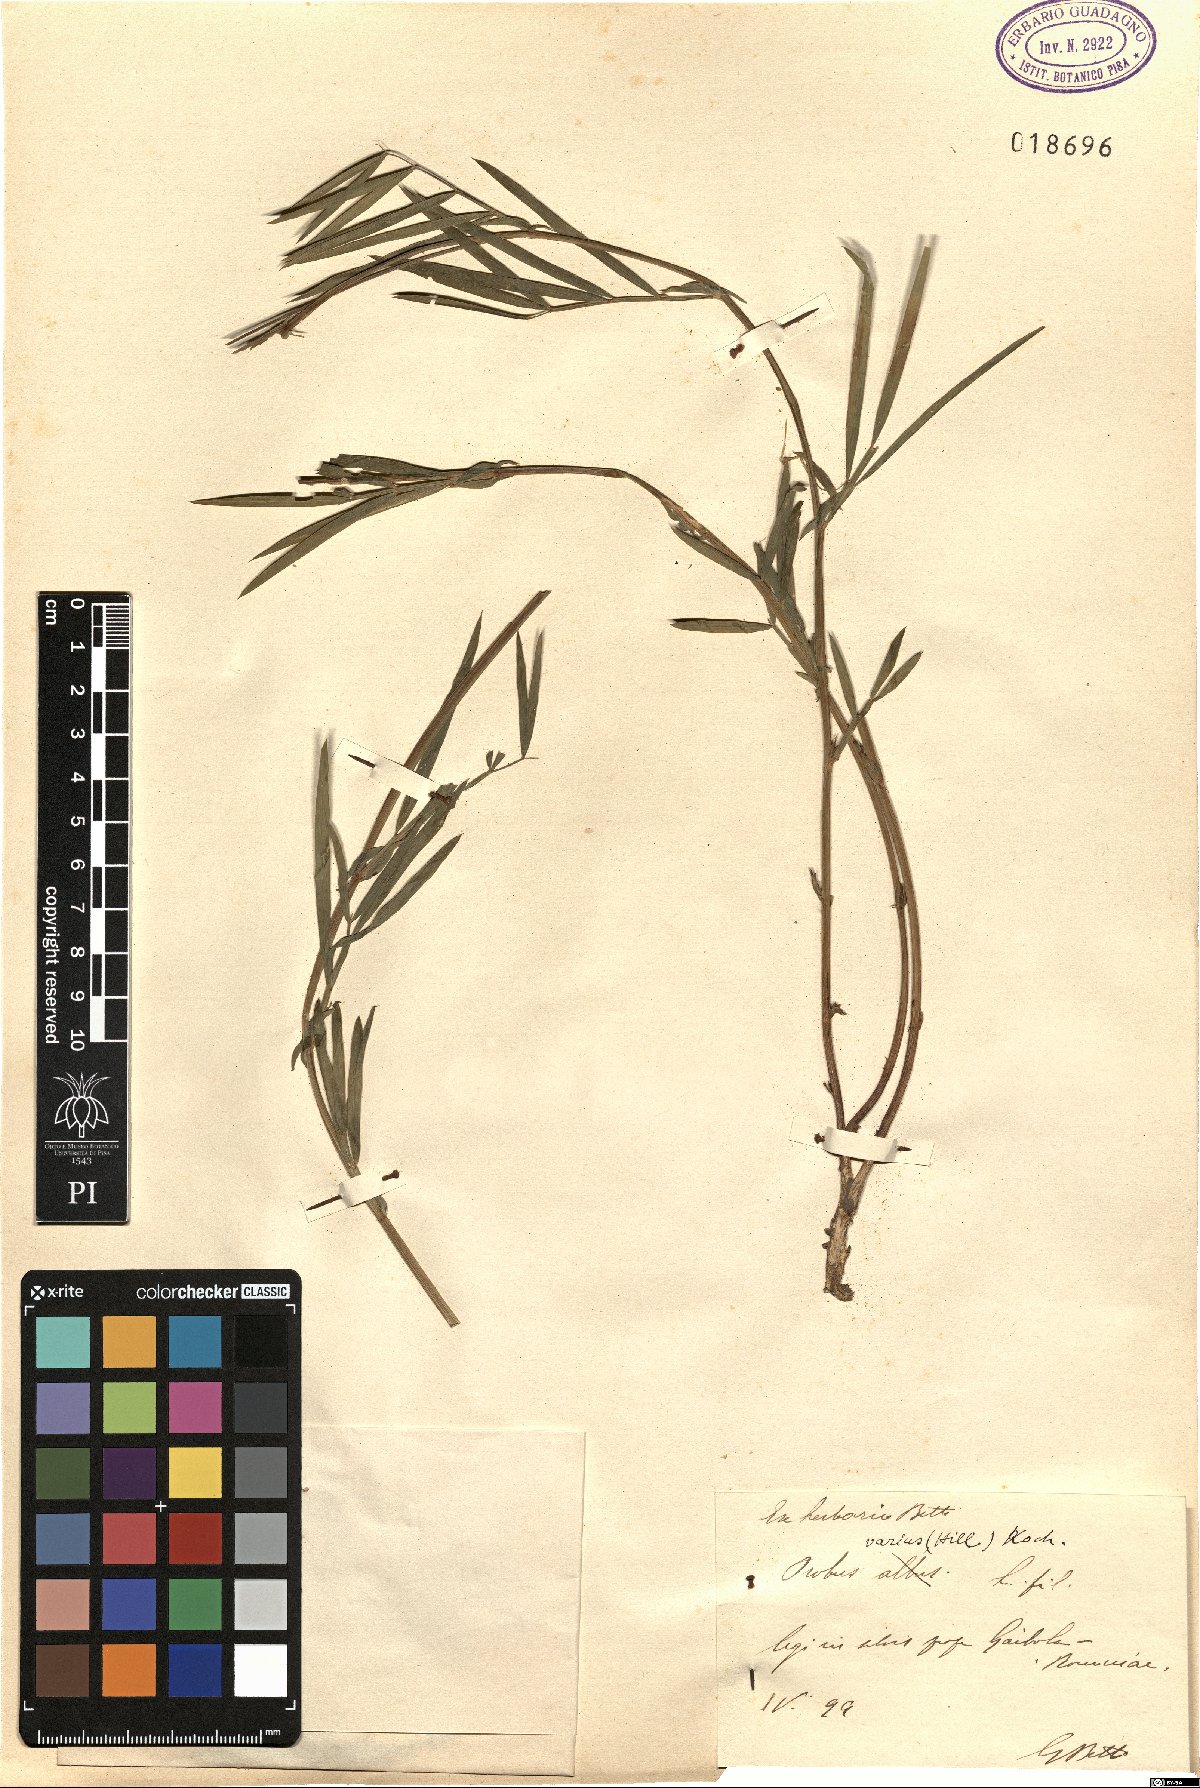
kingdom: Plantae
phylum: Tracheophyta
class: Magnoliopsida
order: Fabales
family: Fabaceae
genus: Lathyrus
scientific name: Lathyrus pannonicus
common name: Pea
